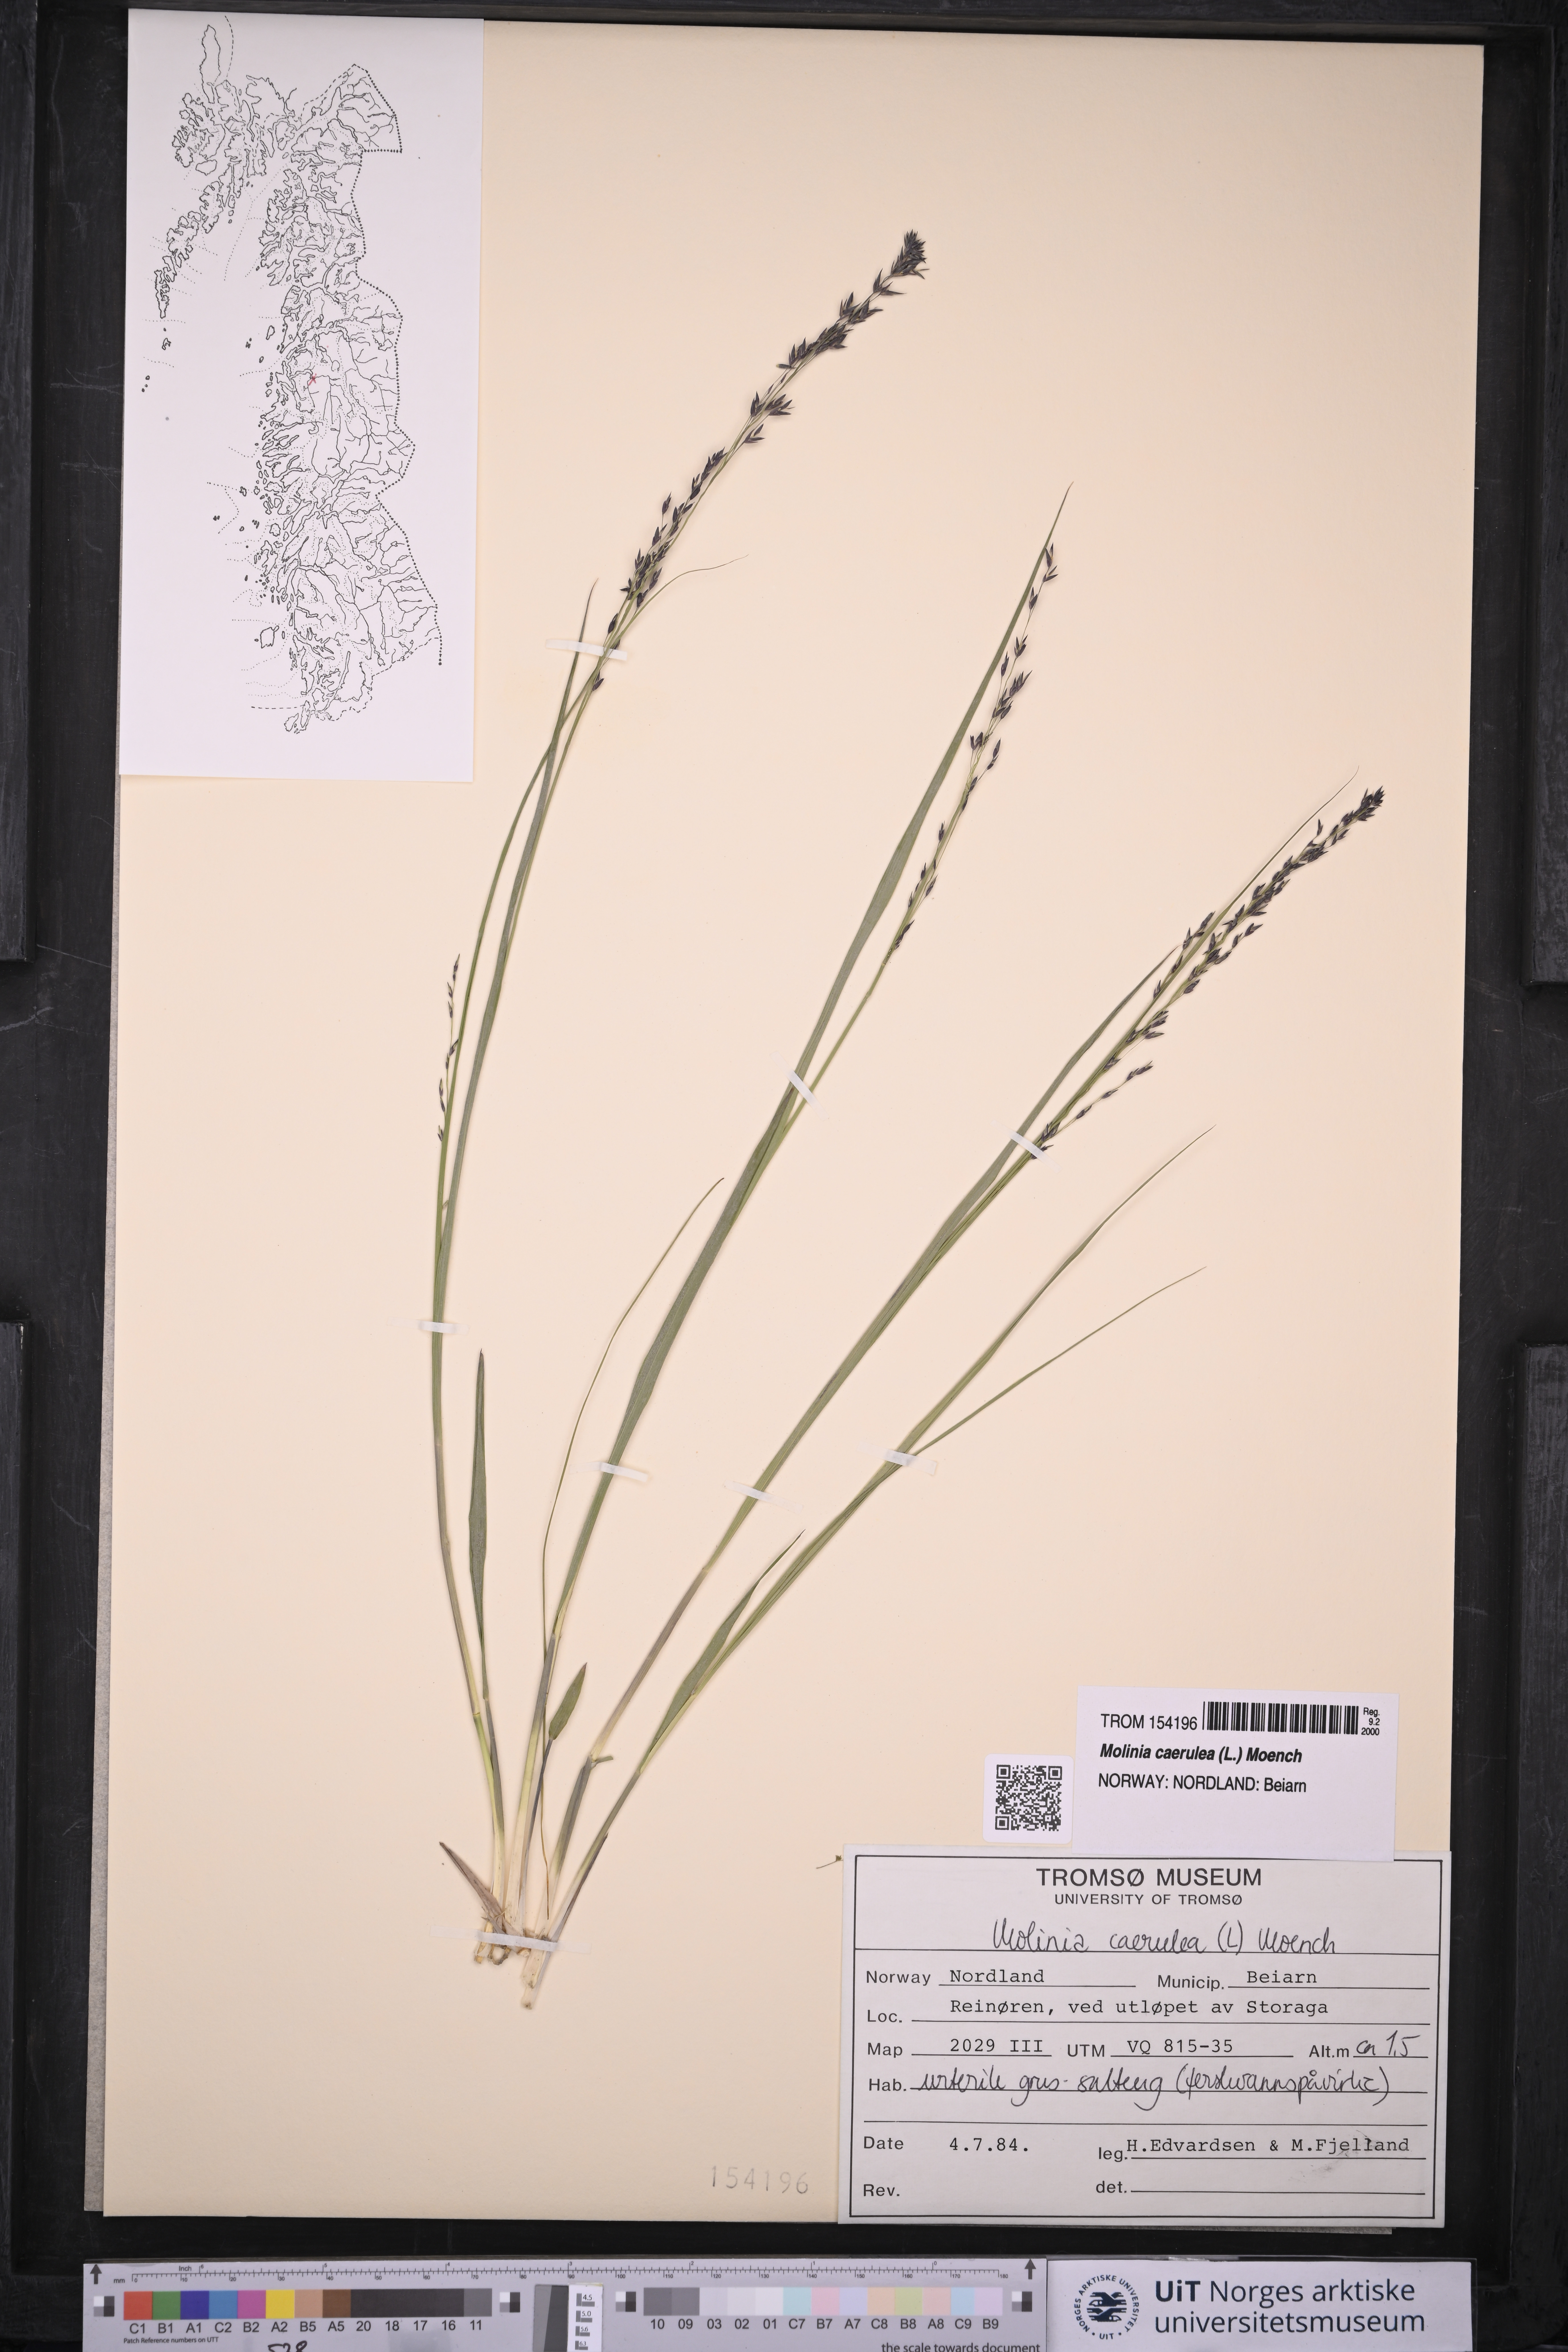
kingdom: Plantae
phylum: Tracheophyta
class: Liliopsida
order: Poales
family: Poaceae
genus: Molinia
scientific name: Molinia caerulea
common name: Purple moor-grass
